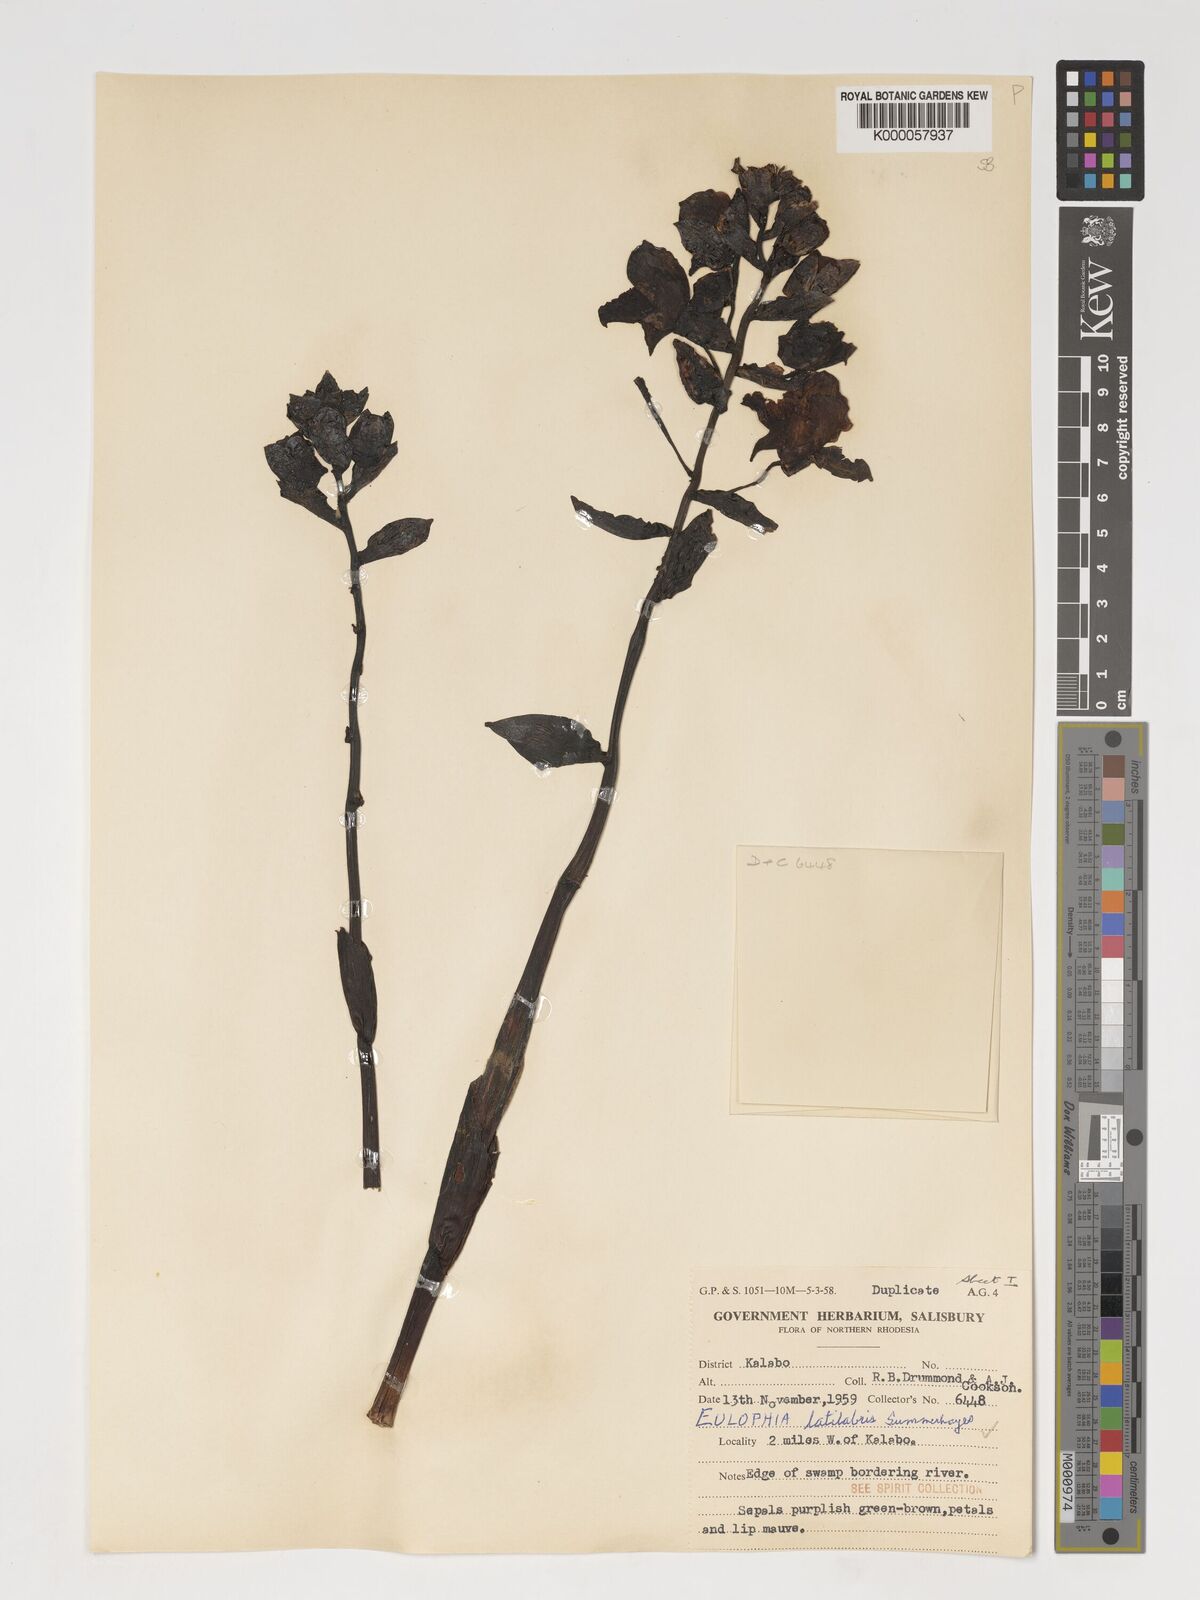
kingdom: Plantae
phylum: Tracheophyta
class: Liliopsida
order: Asparagales
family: Orchidaceae
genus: Eulophia
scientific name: Eulophia latilabris
